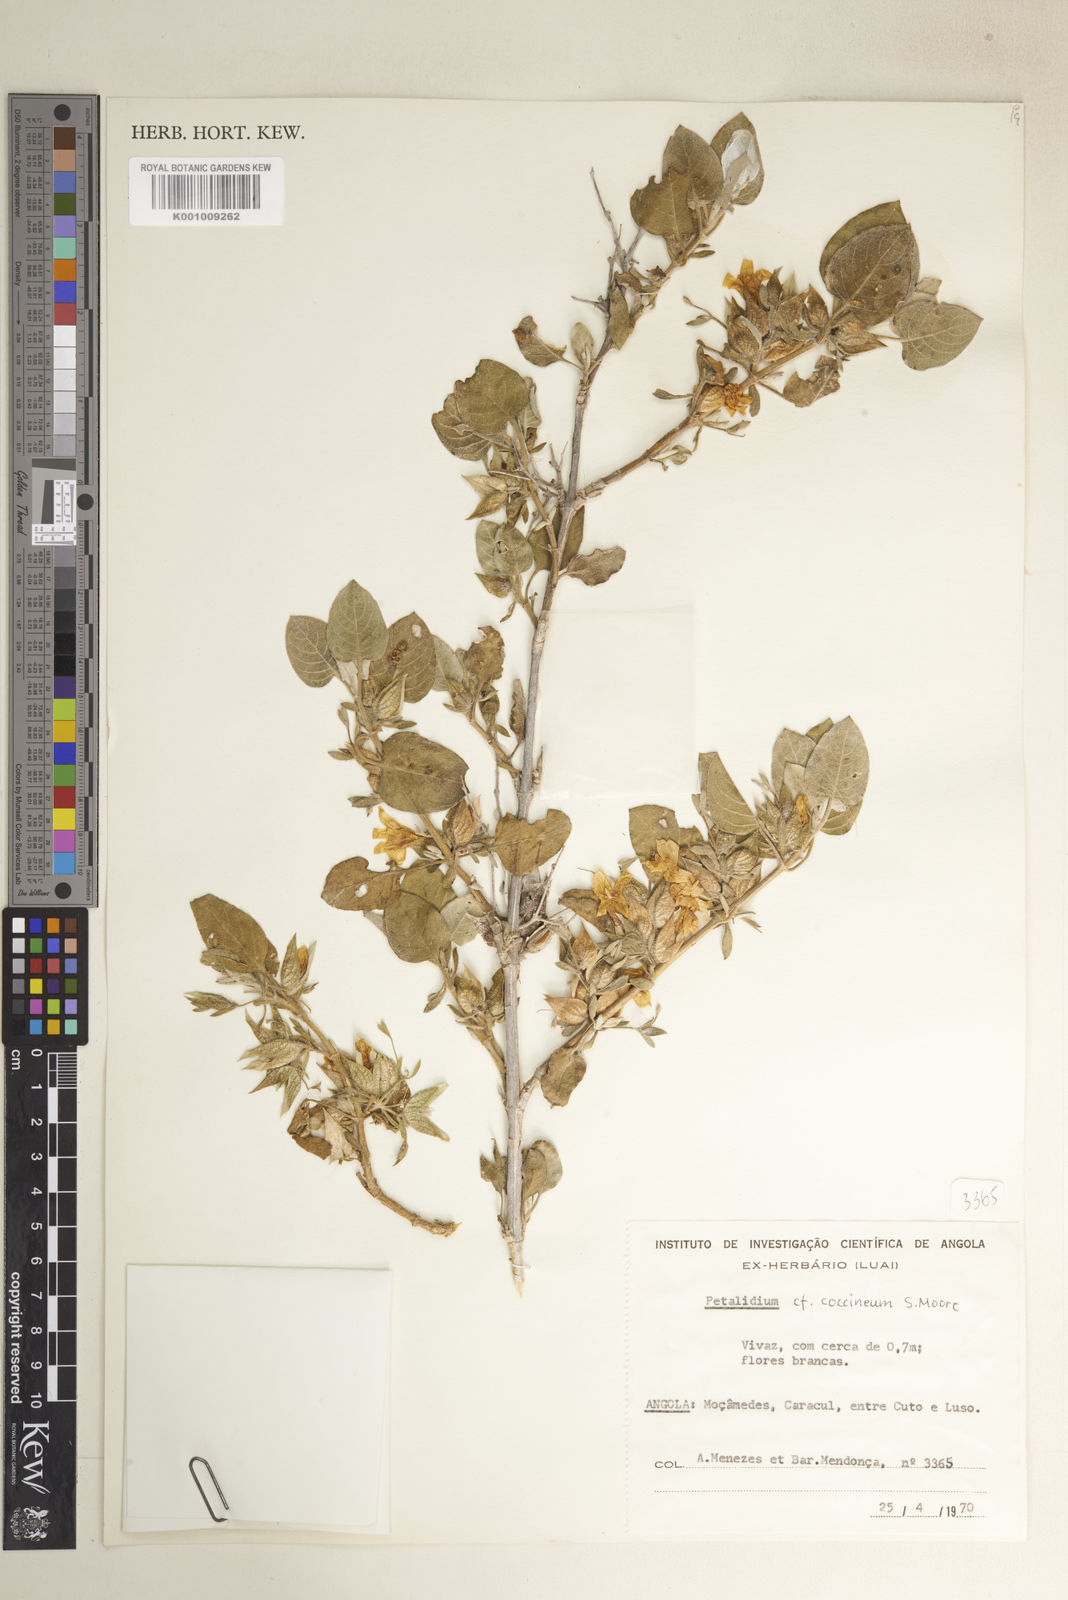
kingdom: Plantae
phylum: Tracheophyta
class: Magnoliopsida
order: Lamiales
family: Acanthaceae
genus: Petalidium
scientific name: Petalidium coccineum
